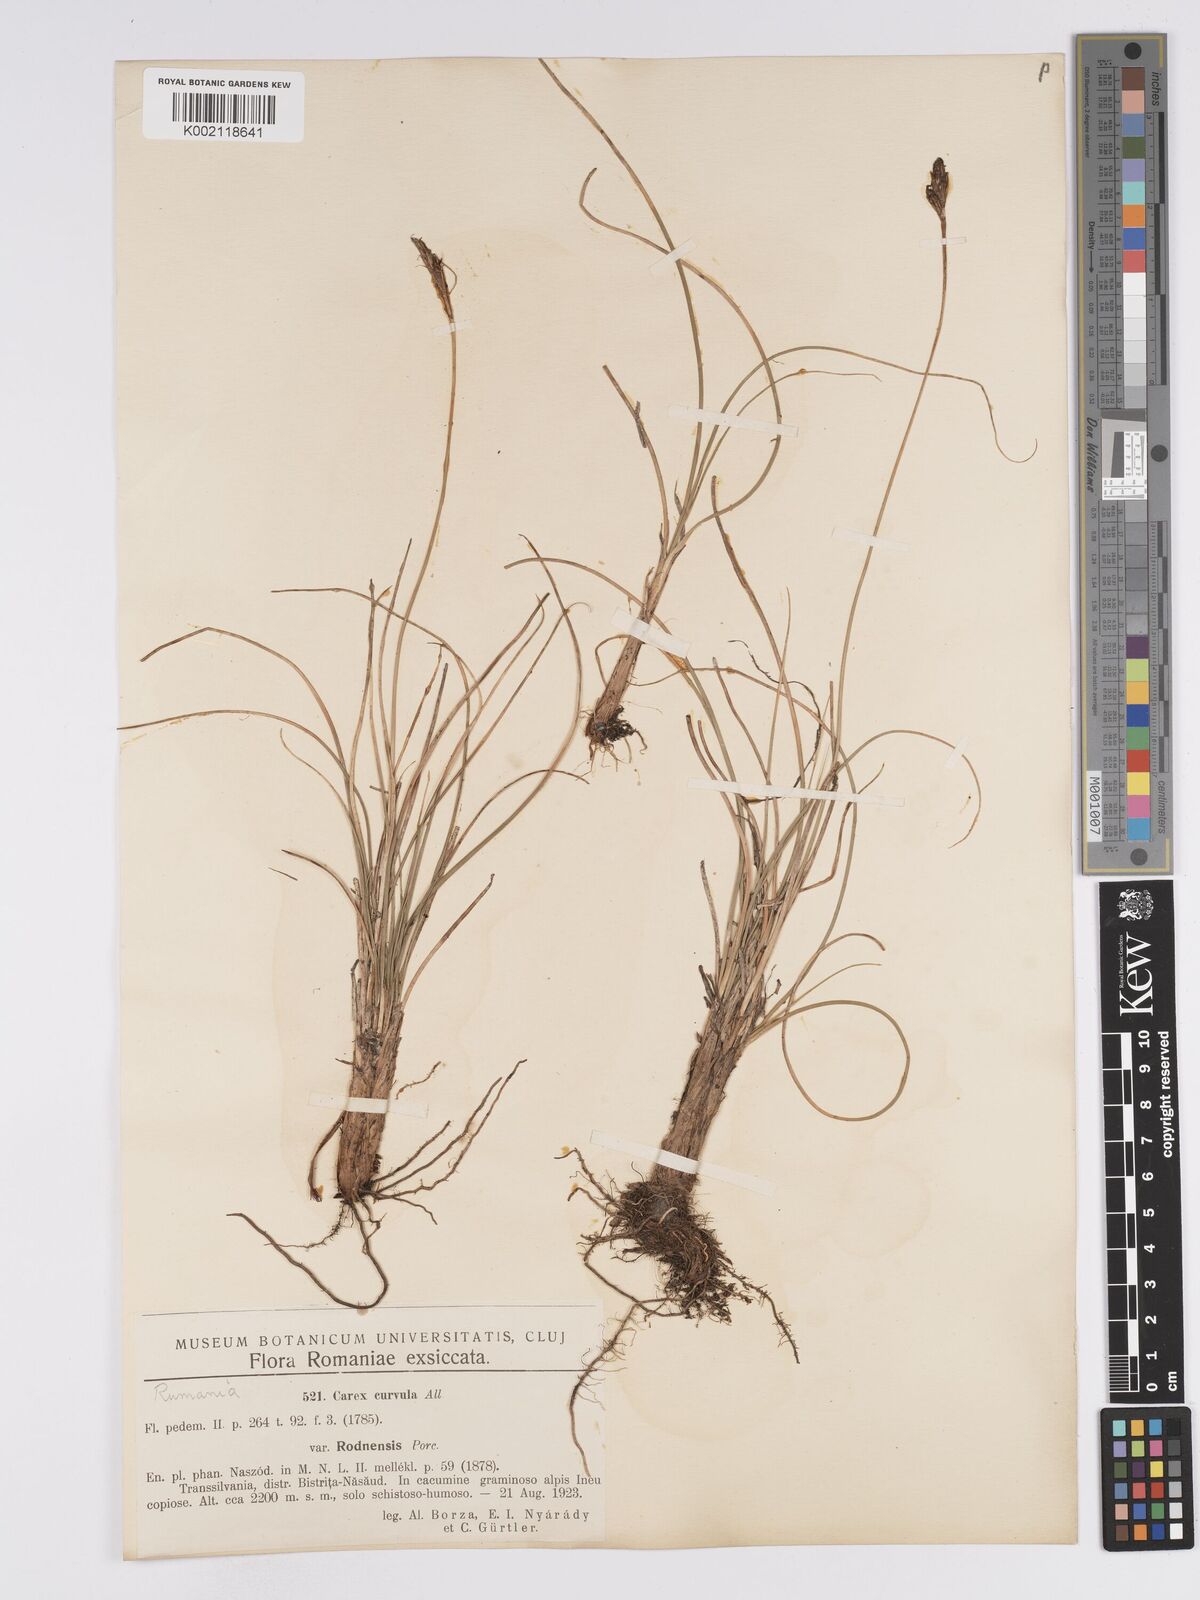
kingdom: Plantae
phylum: Tracheophyta
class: Liliopsida
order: Poales
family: Cyperaceae
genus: Carex
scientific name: Carex curvula
